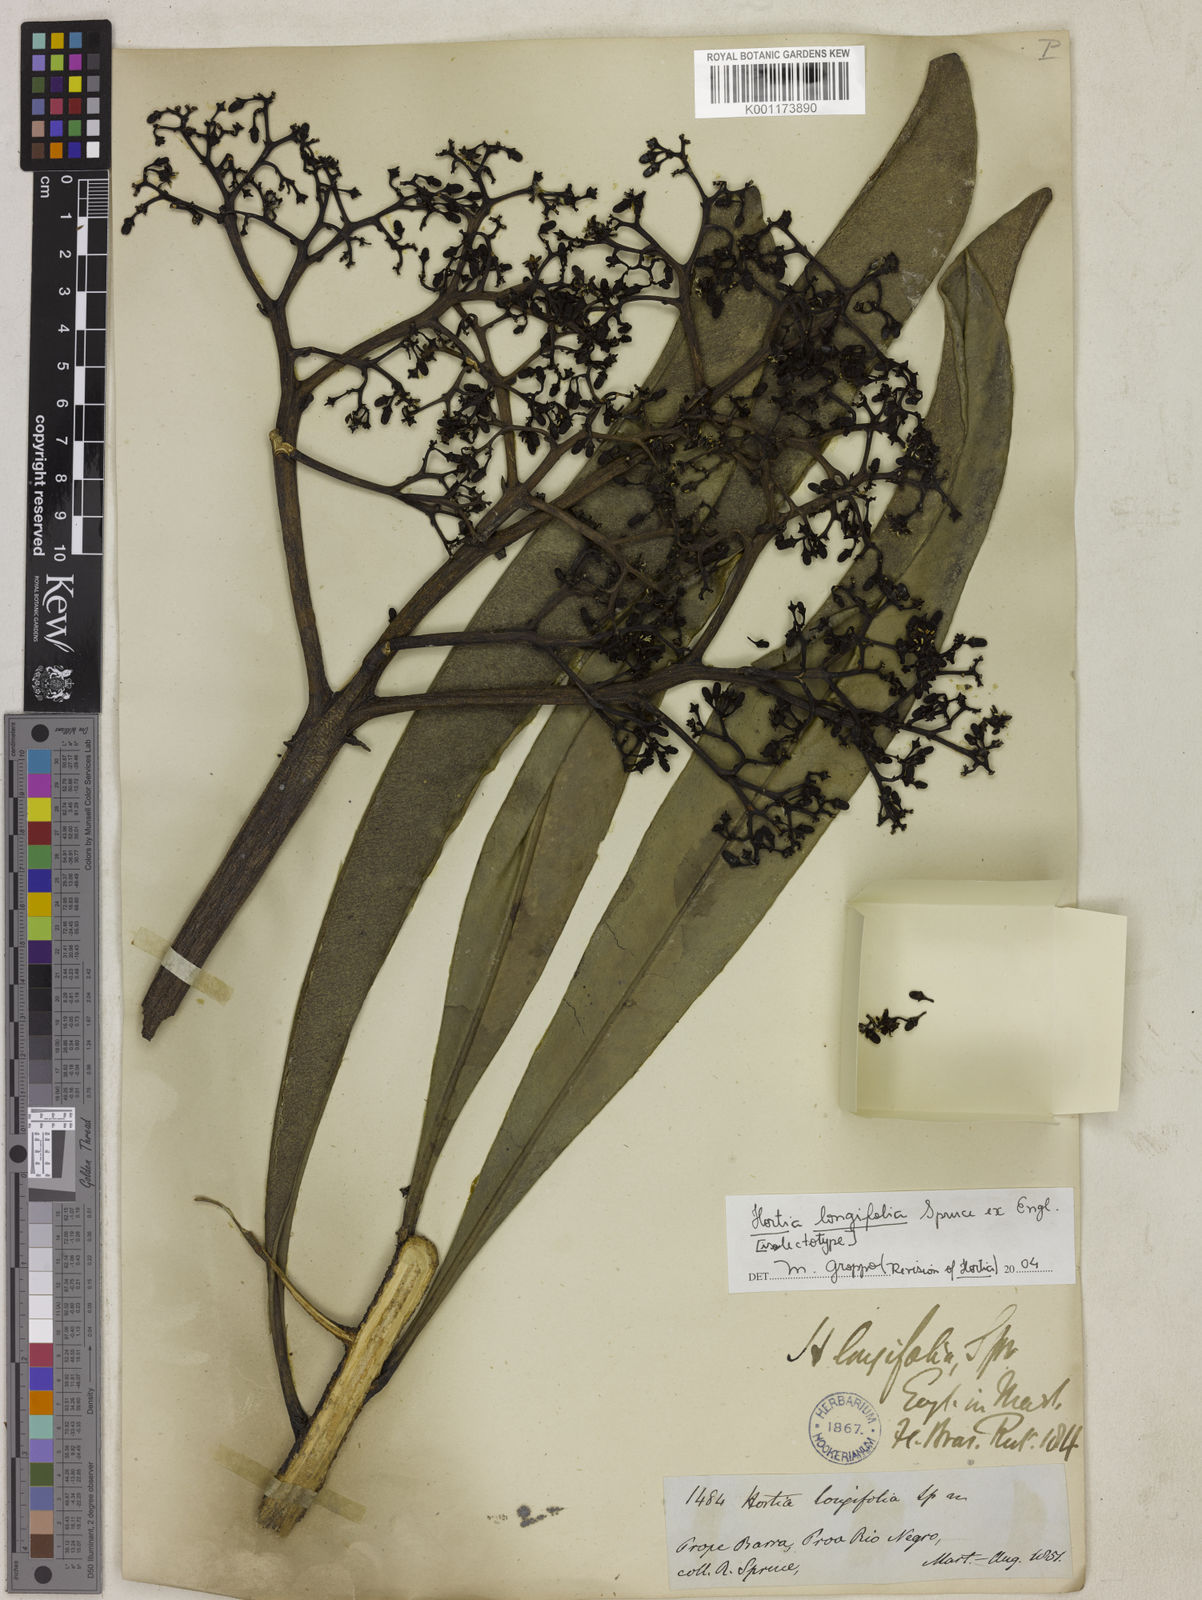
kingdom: Plantae
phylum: Tracheophyta
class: Magnoliopsida
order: Sapindales
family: Rutaceae
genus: Hortia
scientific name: Hortia longifolia
